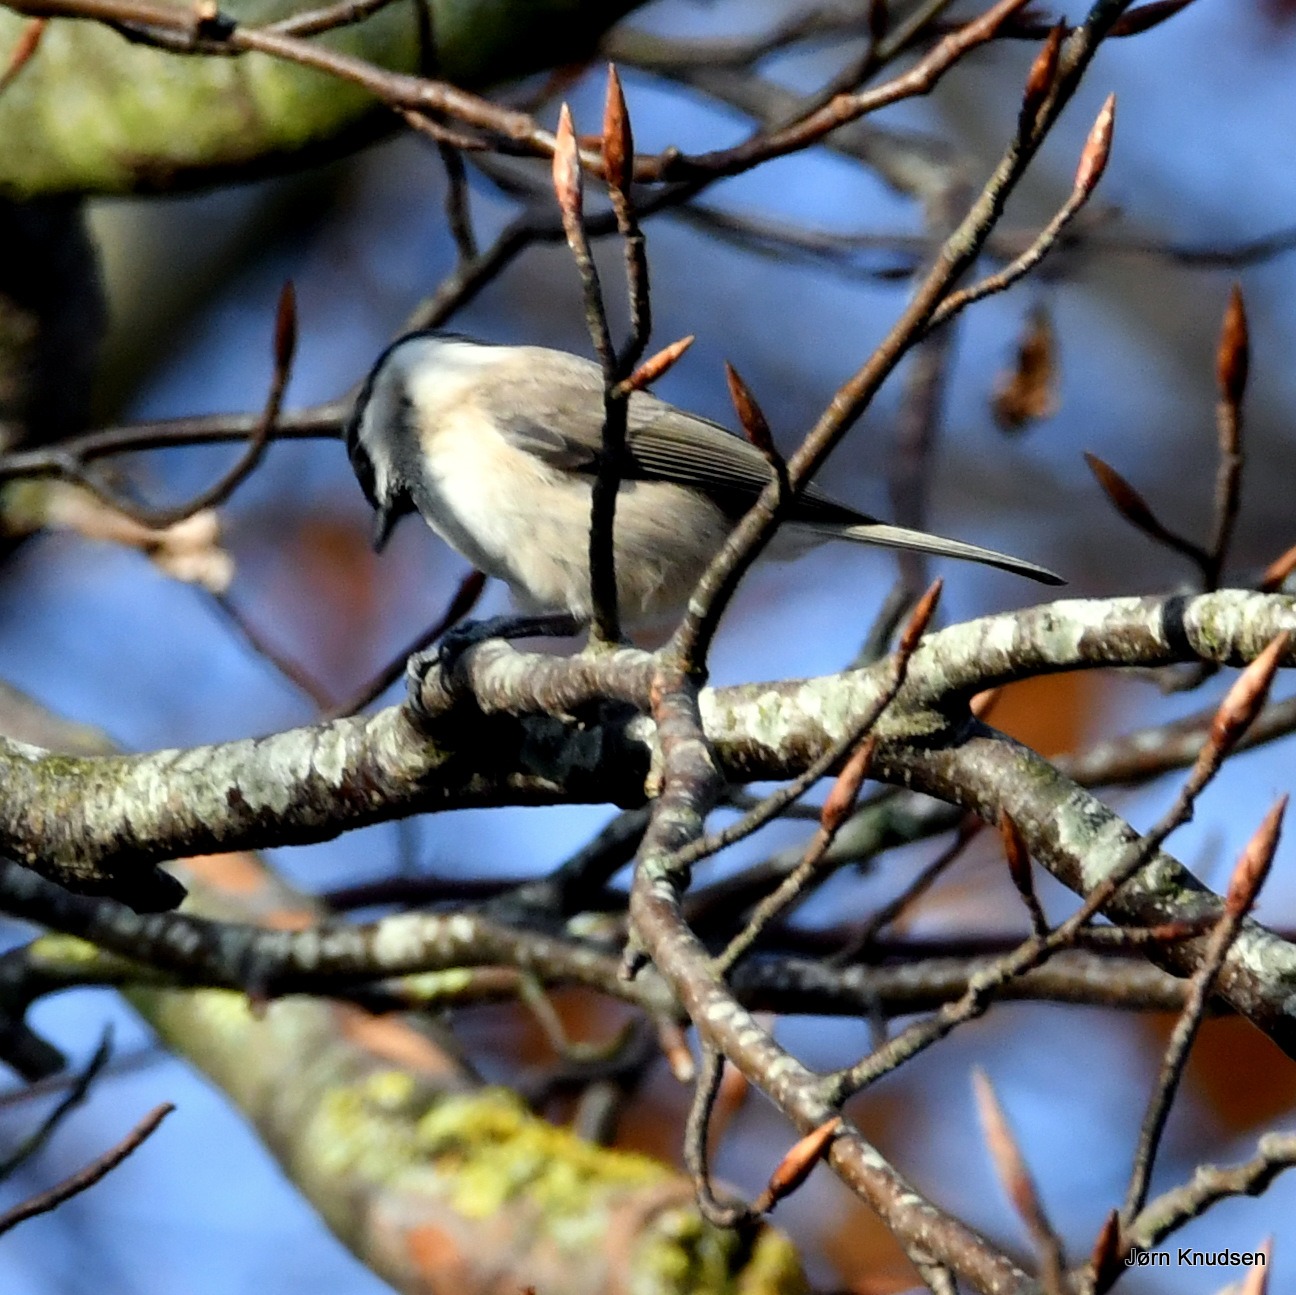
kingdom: Animalia
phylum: Chordata
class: Aves
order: Passeriformes
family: Paridae
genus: Poecile
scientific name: Poecile palustris
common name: Sumpmejse
